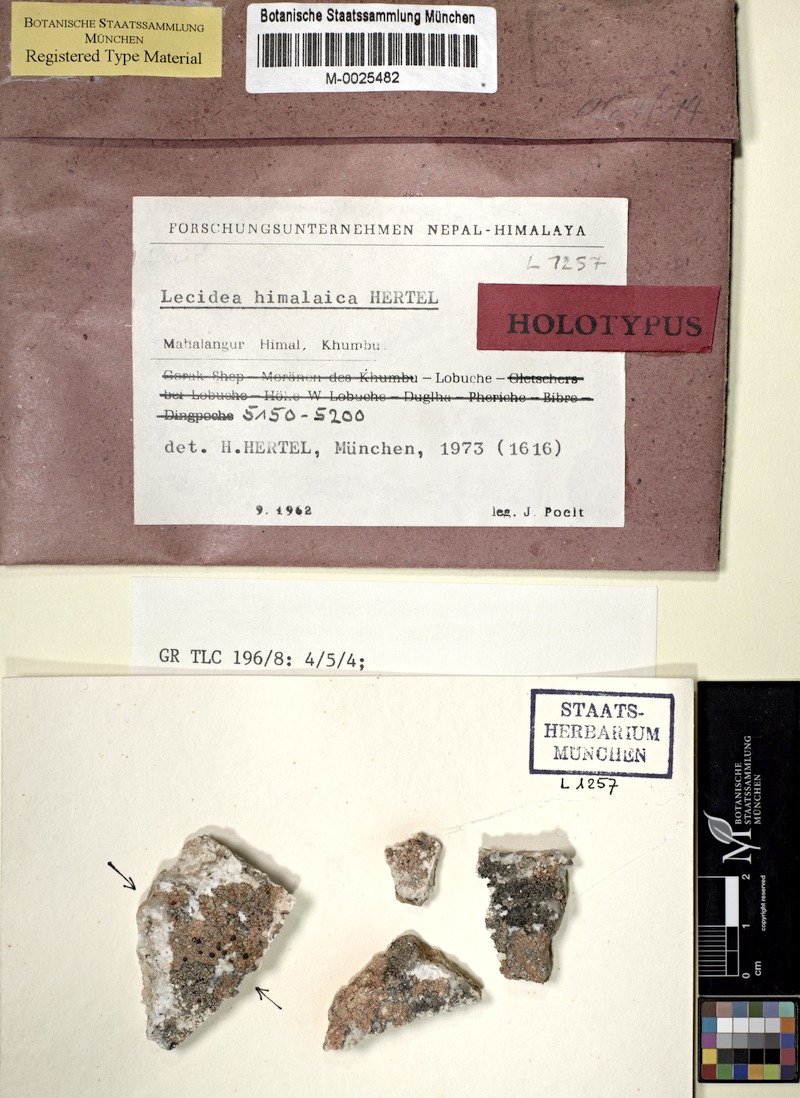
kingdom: Fungi
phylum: Ascomycota
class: Lecanoromycetes
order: Lecideales
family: Lecideaceae
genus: Lecidea
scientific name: Lecidea himalaica
